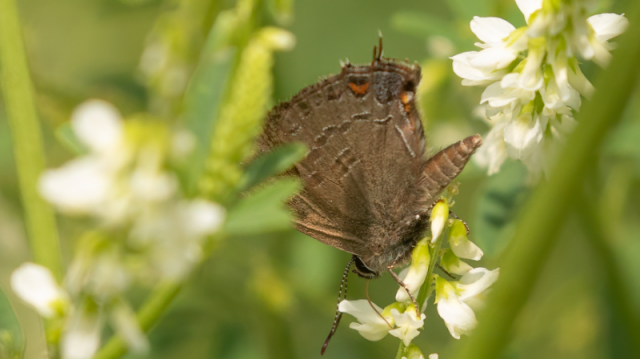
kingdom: Animalia
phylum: Arthropoda
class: Insecta
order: Lepidoptera
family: Lycaenidae
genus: Satyrium
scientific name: Satyrium calanus
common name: Banded Hairstreak
